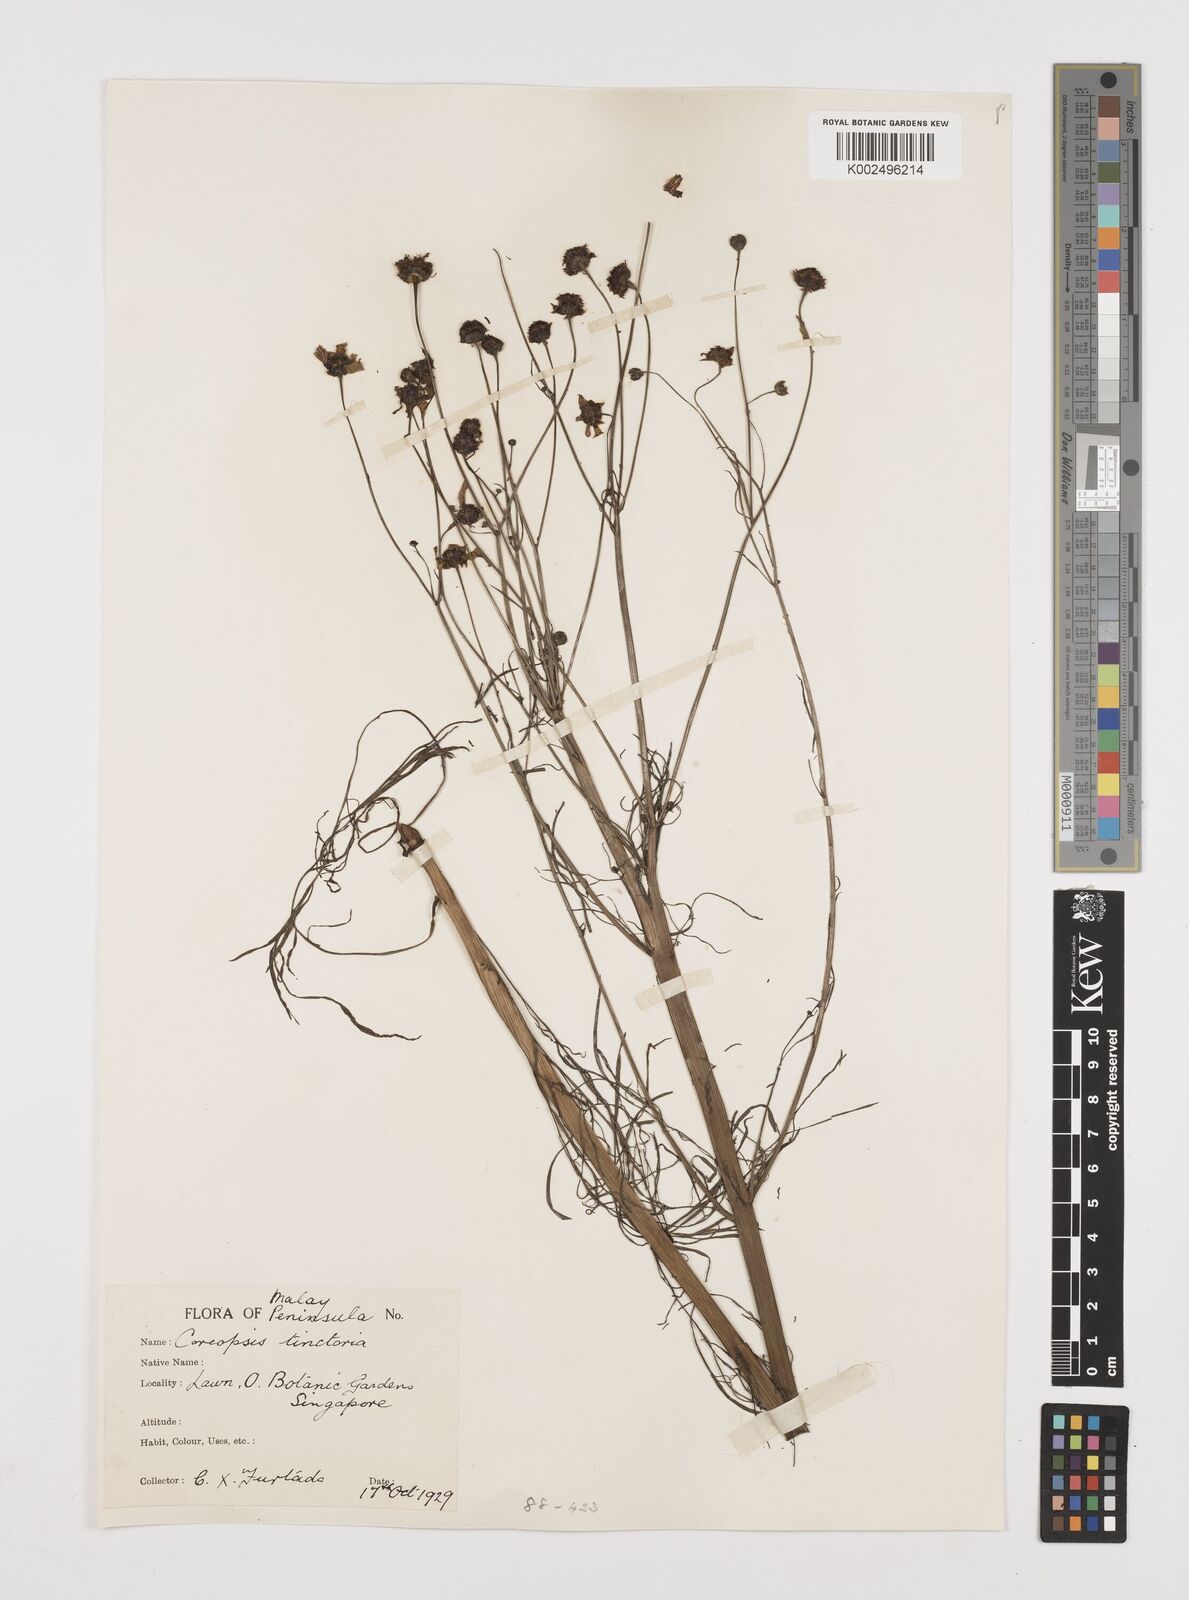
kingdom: Plantae
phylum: Tracheophyta
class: Magnoliopsida
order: Asterales
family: Asteraceae
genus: Coreopsis
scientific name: Coreopsis tinctoria
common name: Garden tickseed
